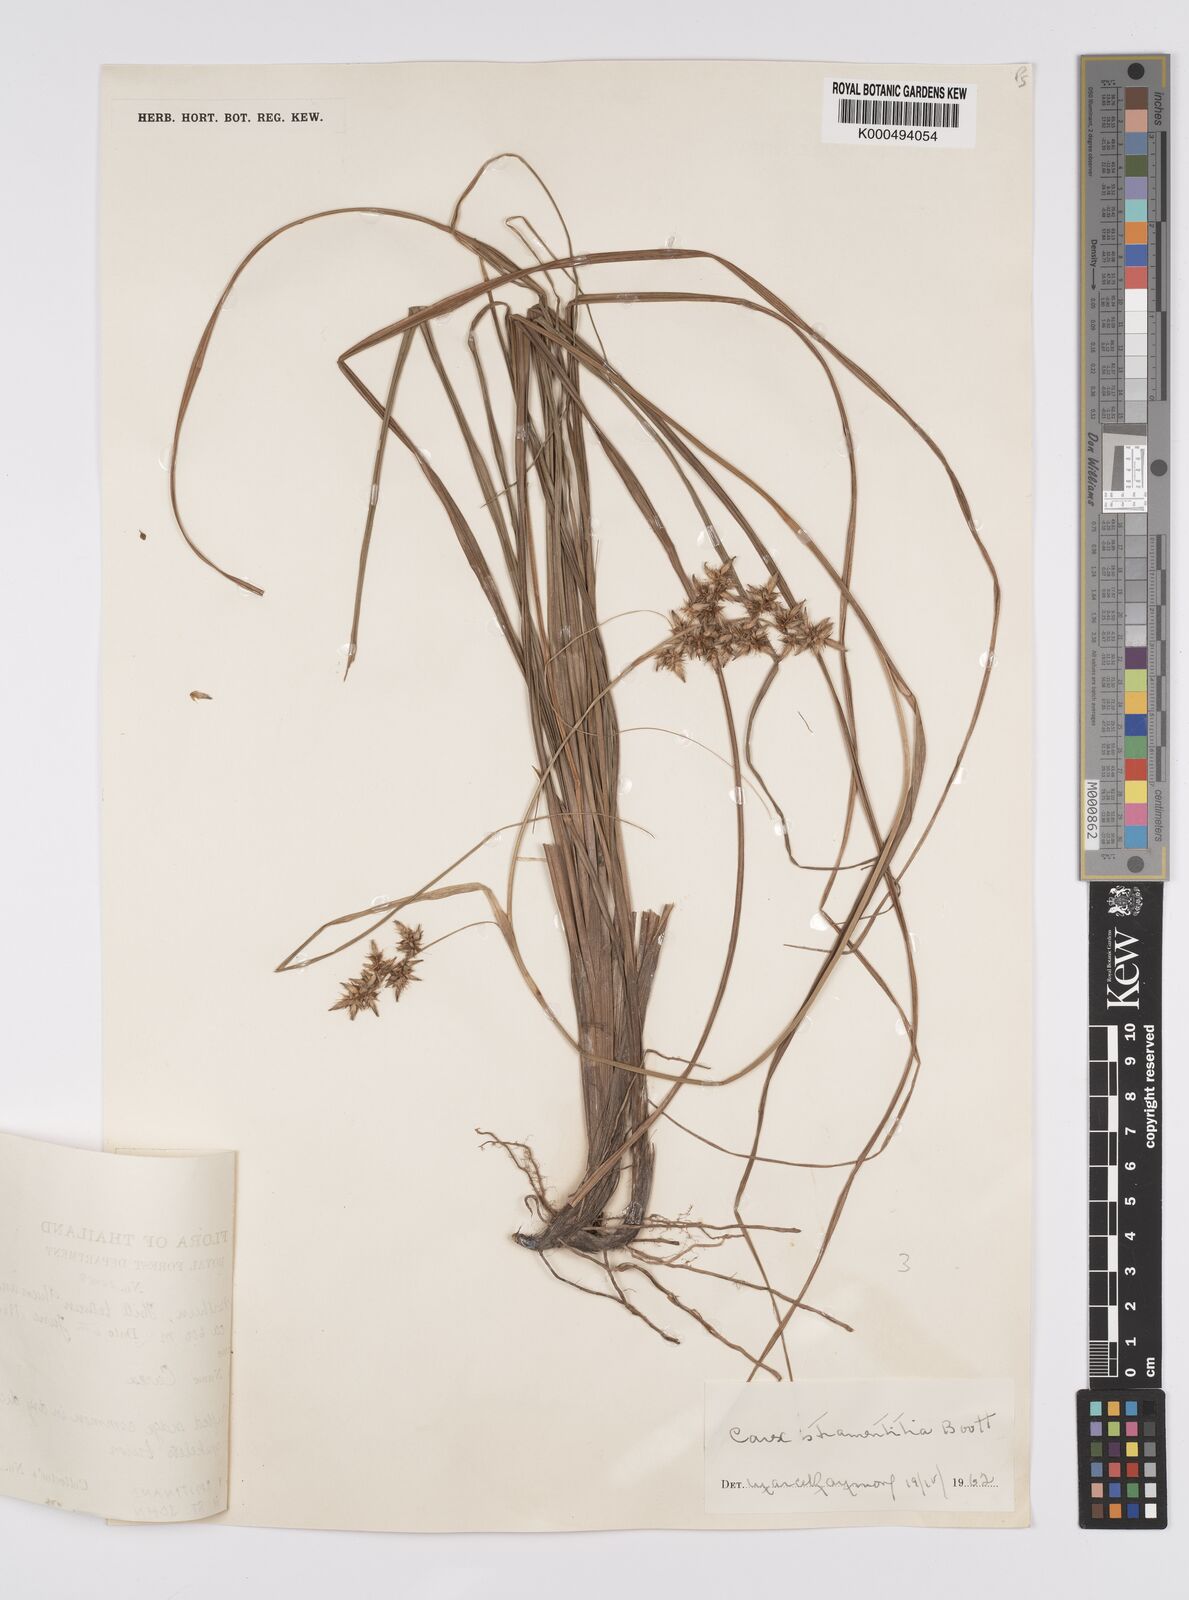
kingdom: Plantae
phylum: Tracheophyta
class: Liliopsida
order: Poales
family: Cyperaceae
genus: Carex
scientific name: Carex stramentitia
